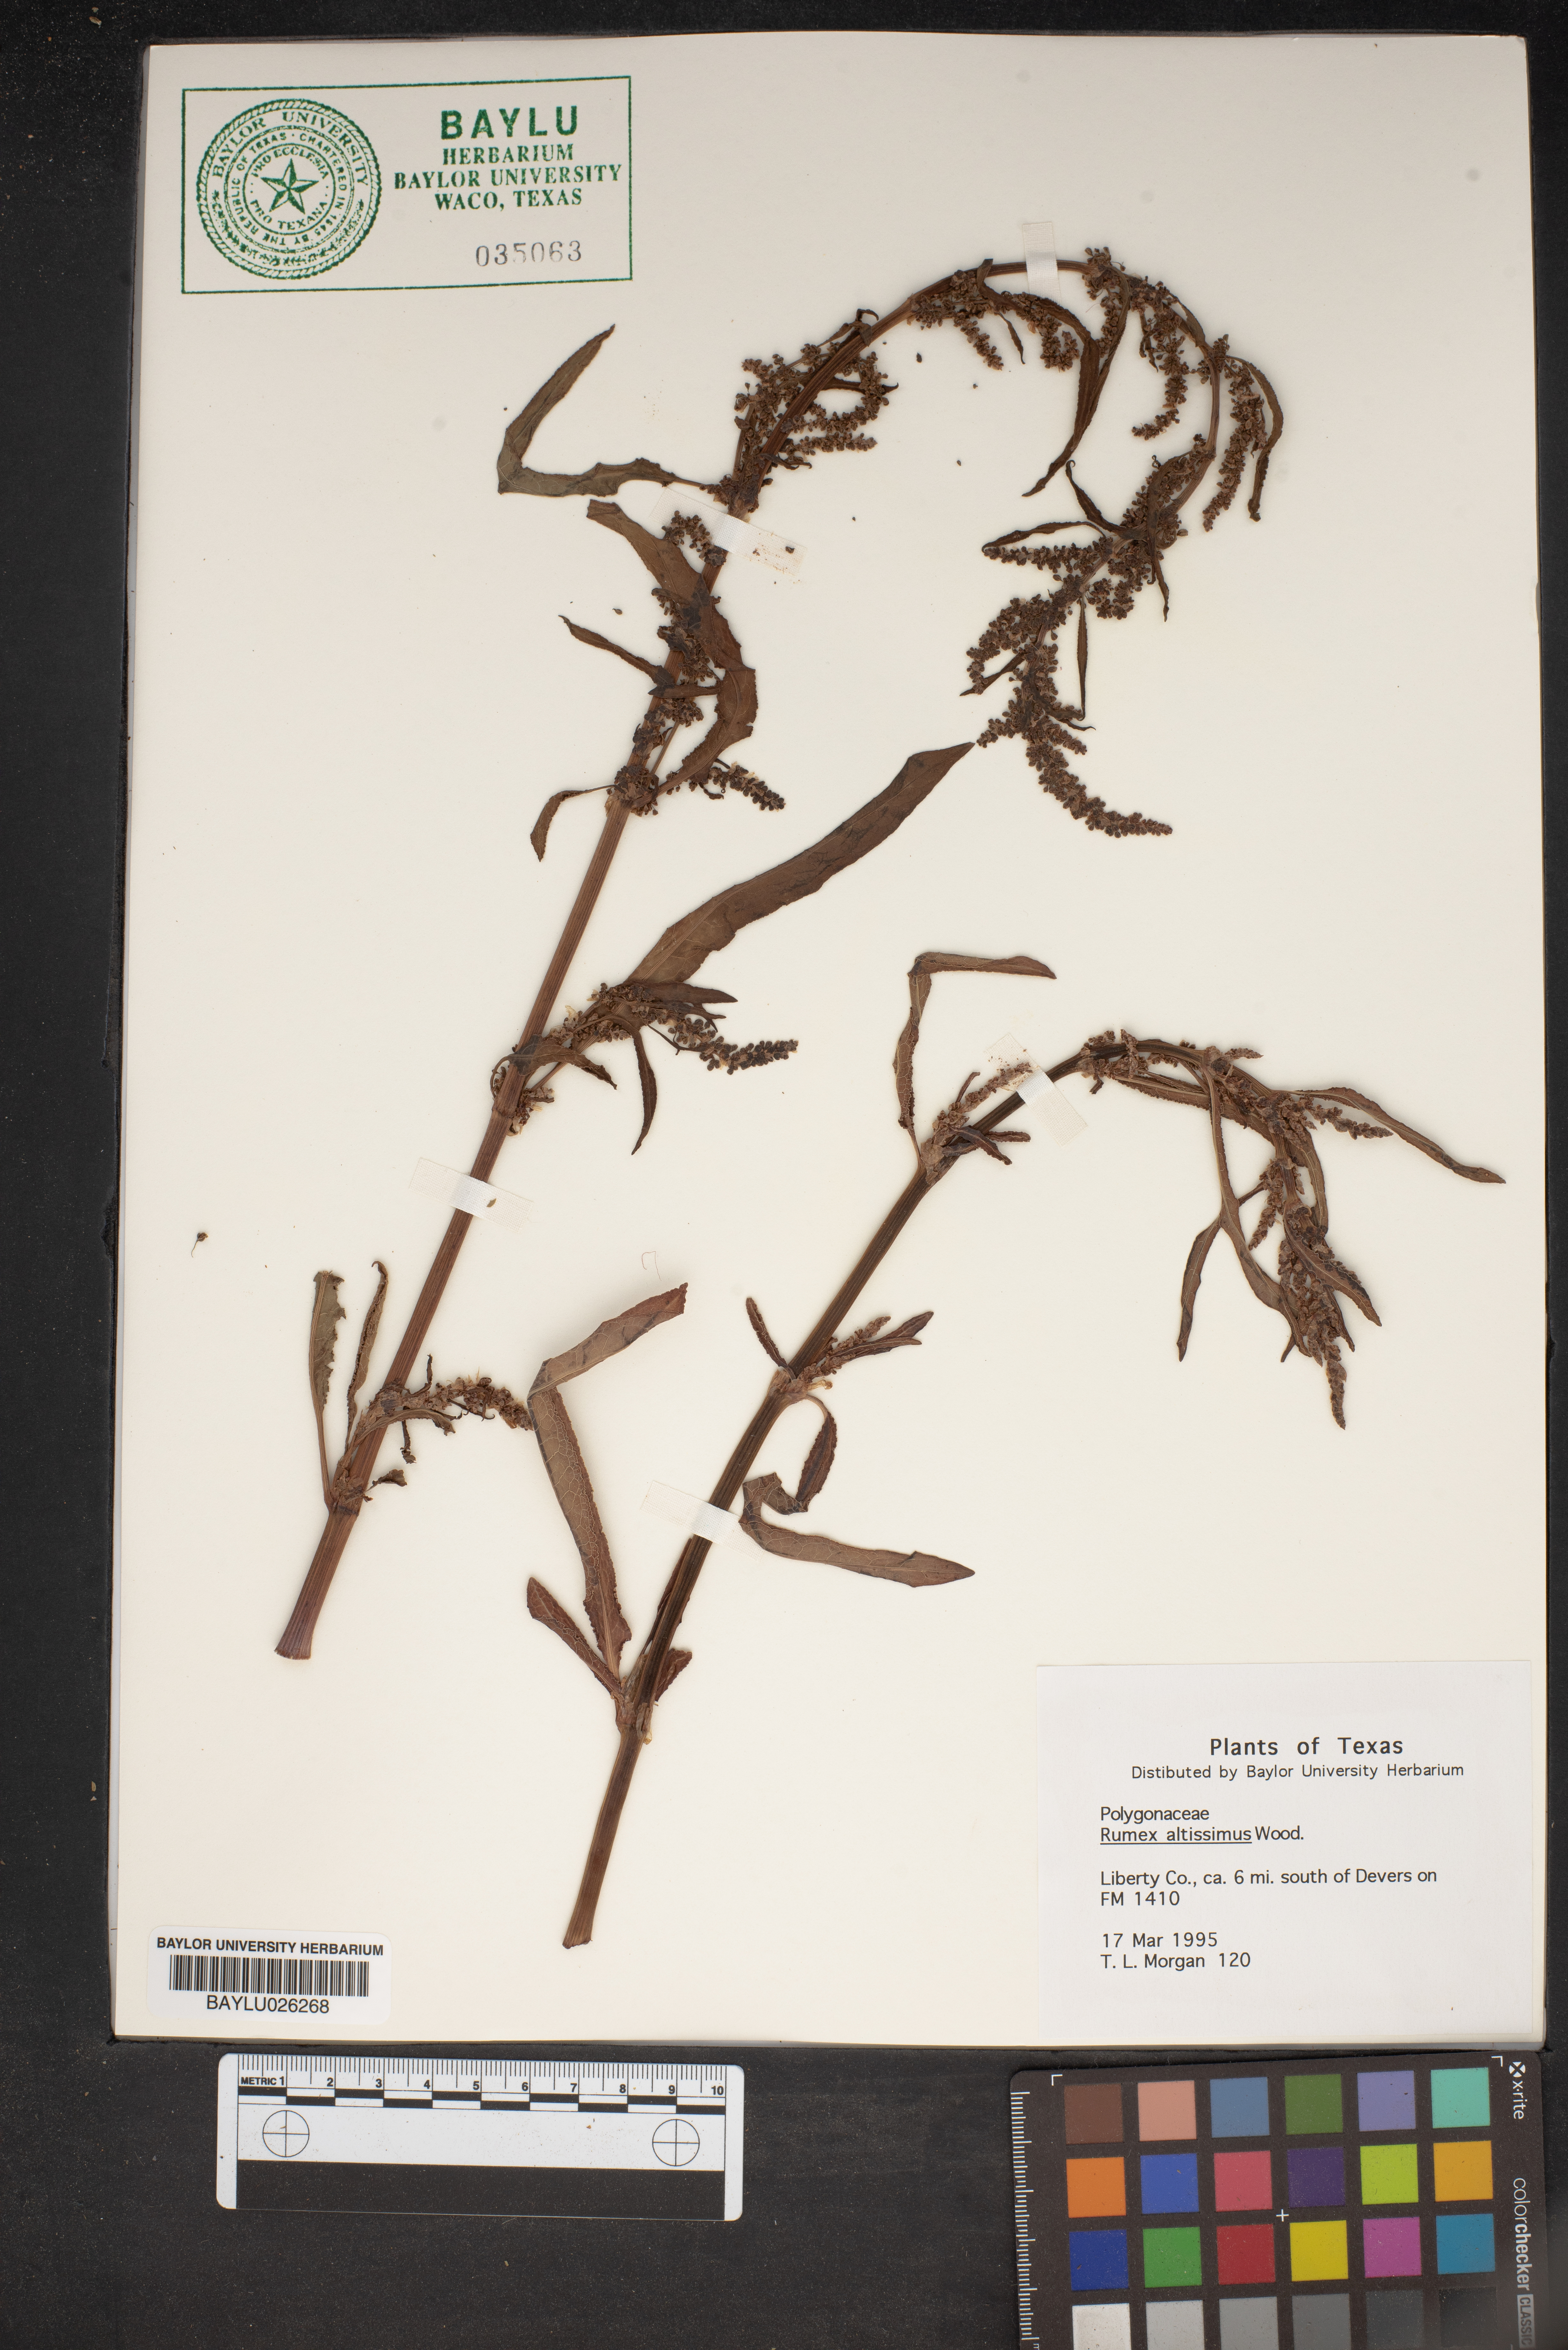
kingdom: Plantae
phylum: Tracheophyta
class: Magnoliopsida
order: Caryophyllales
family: Polygonaceae
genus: Rumex
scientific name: Rumex altissimus
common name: Smooth dock
